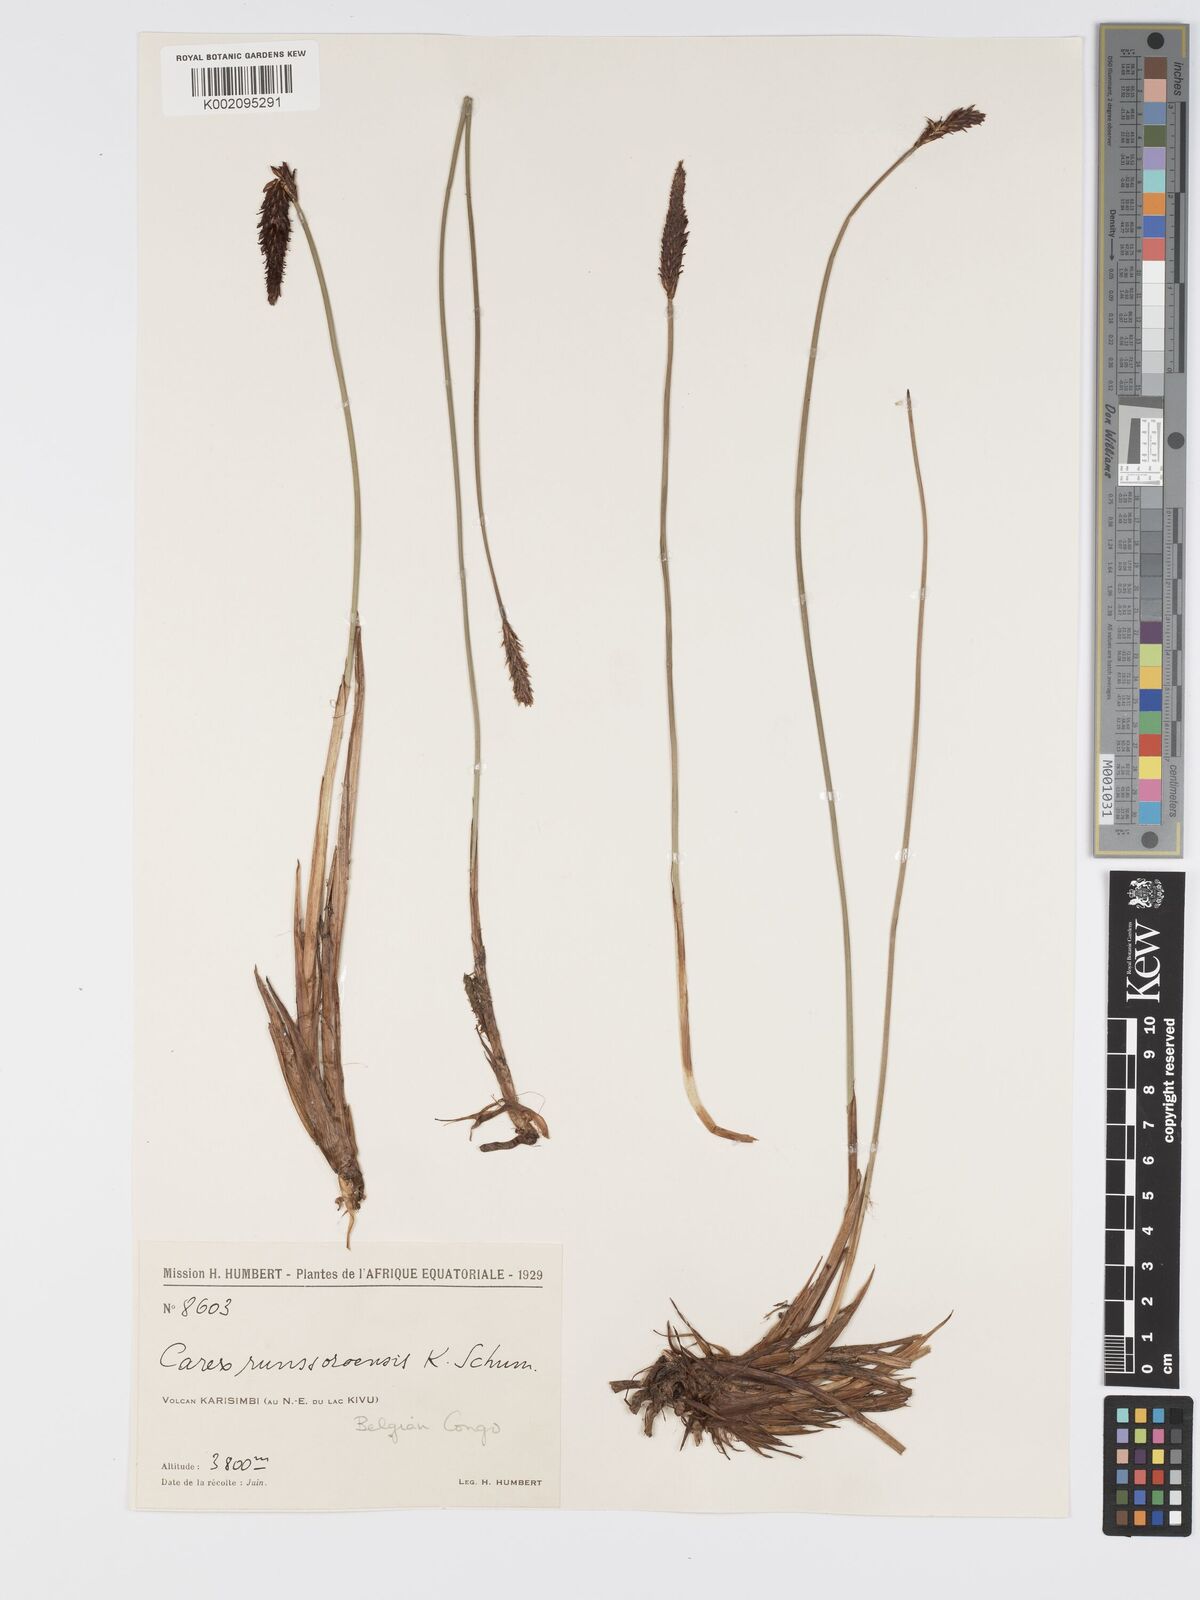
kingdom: Plantae
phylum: Tracheophyta
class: Liliopsida
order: Poales
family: Cyperaceae
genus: Carex
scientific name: Carex runssoroensis
